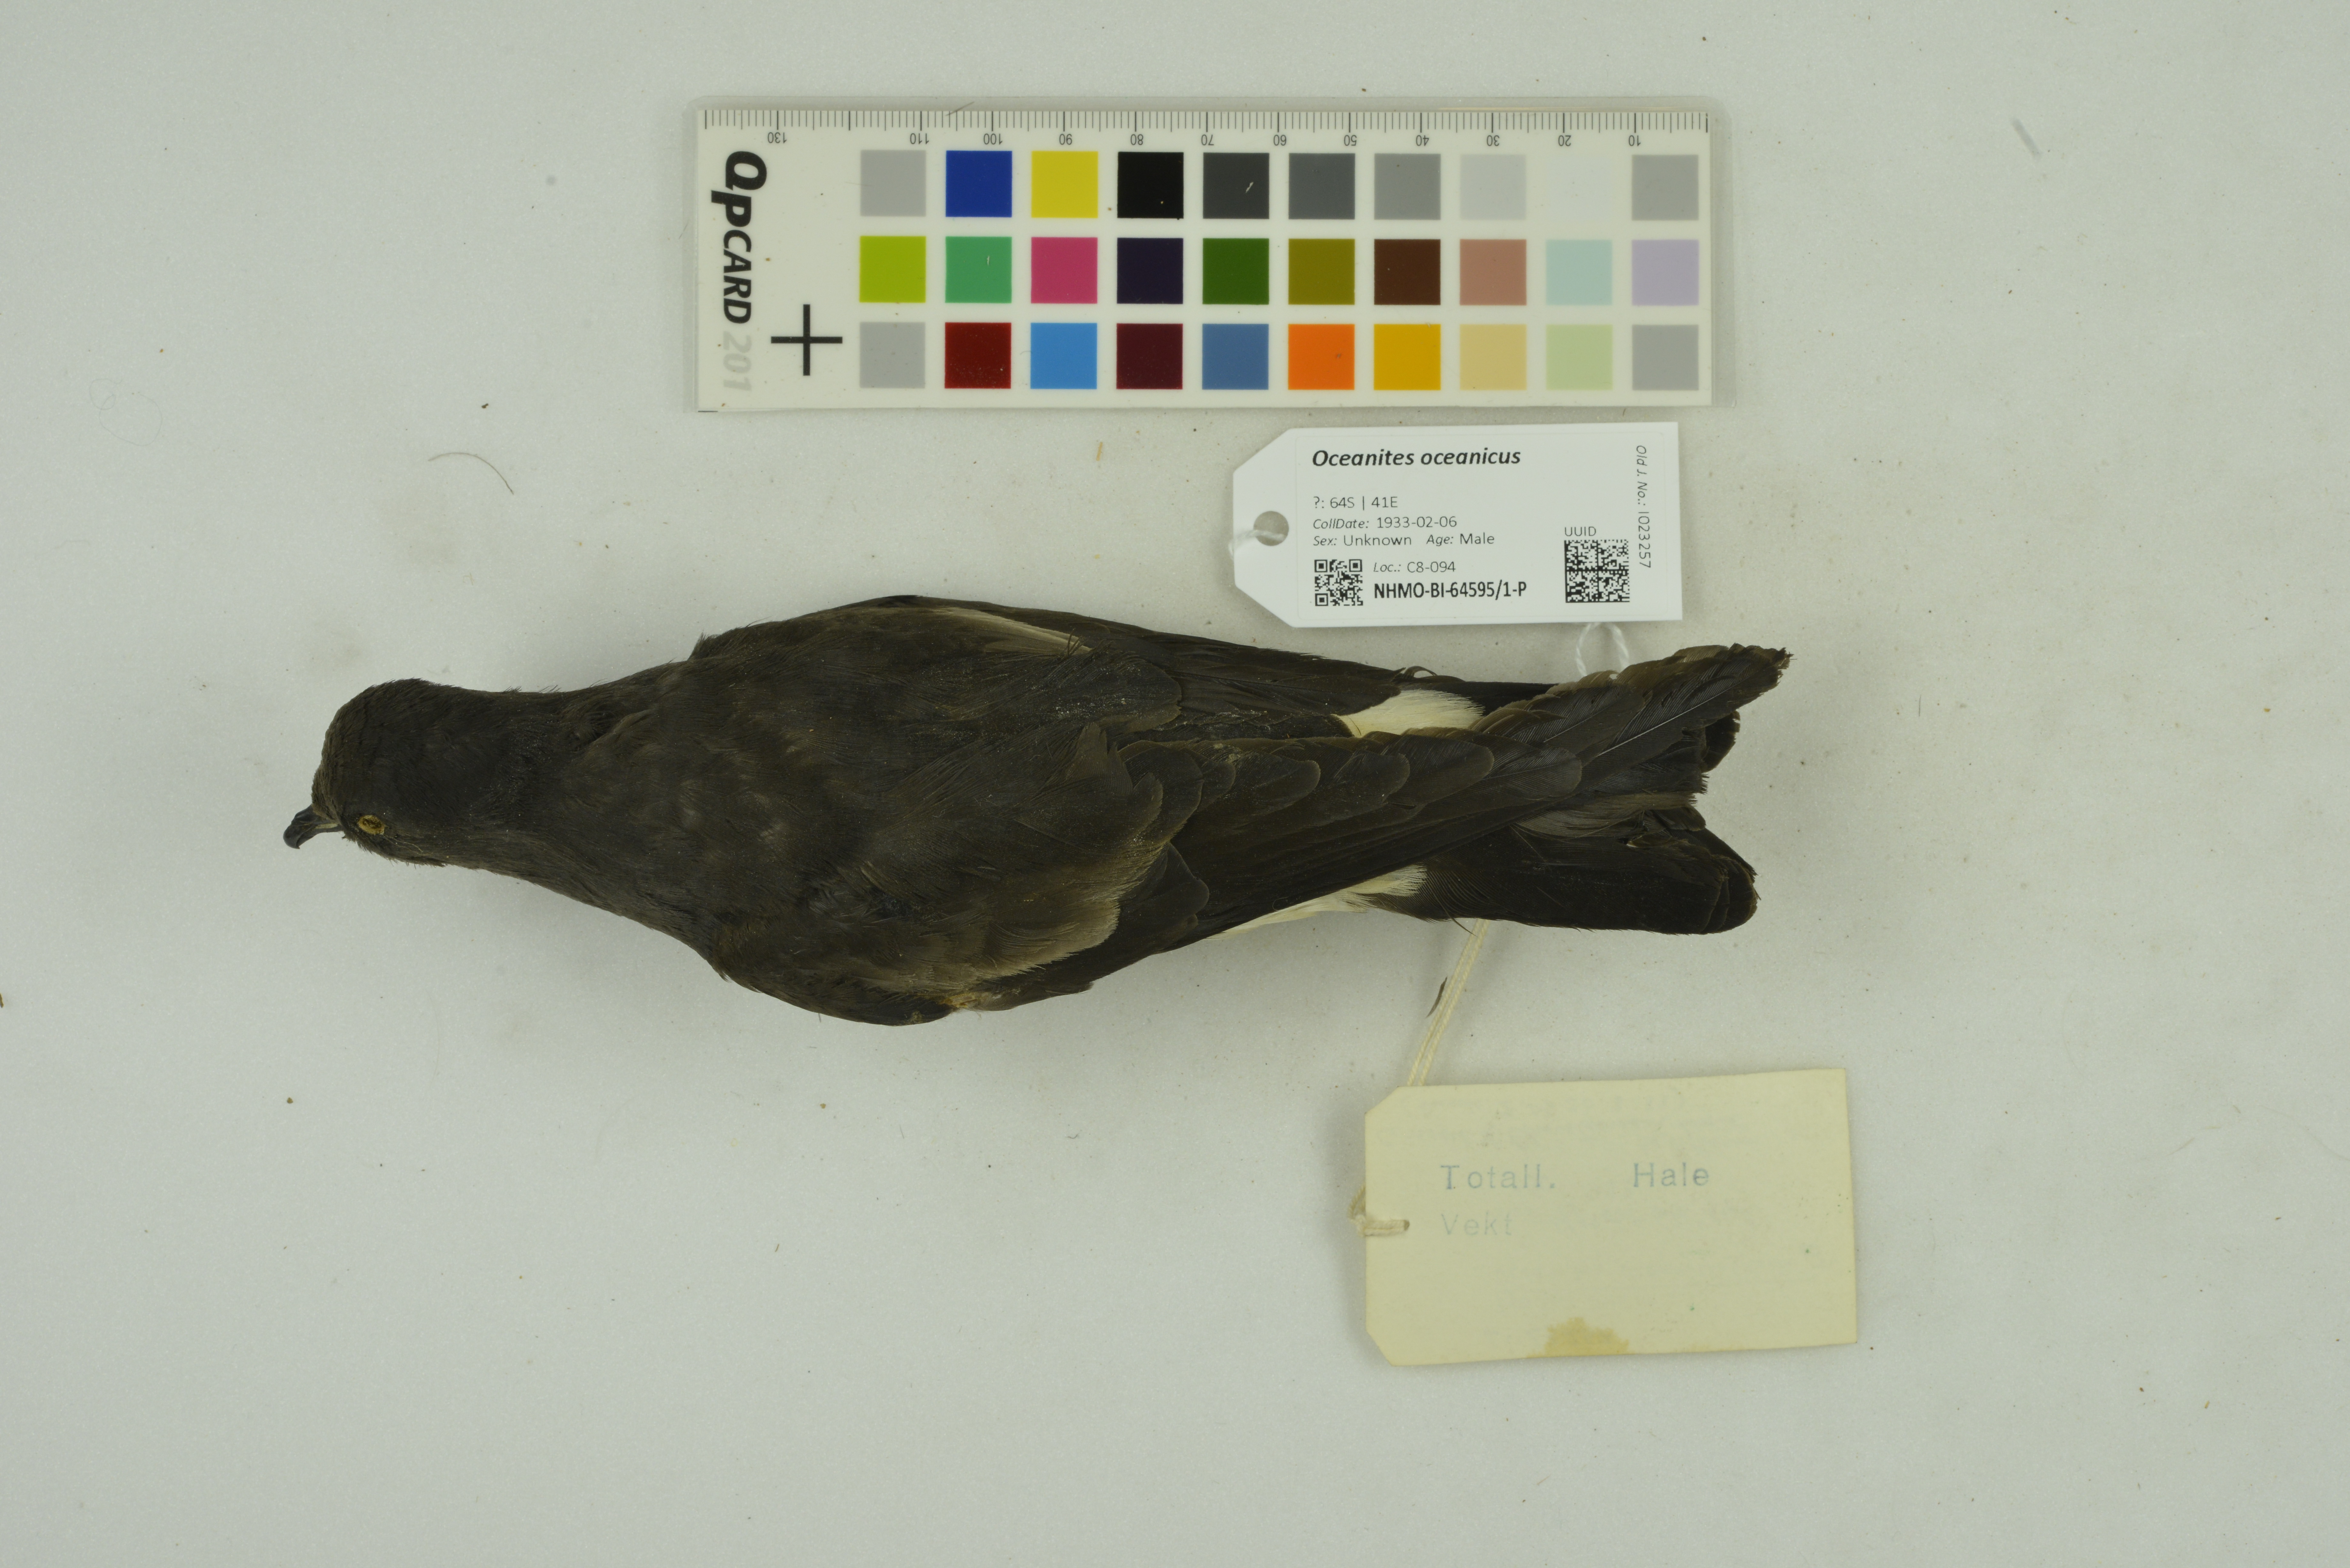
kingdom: Animalia
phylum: Chordata
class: Aves
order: Procellariiformes
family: Hydrobatidae
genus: Oceanites
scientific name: Oceanites oceanicus
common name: Wilson's storm petrel
